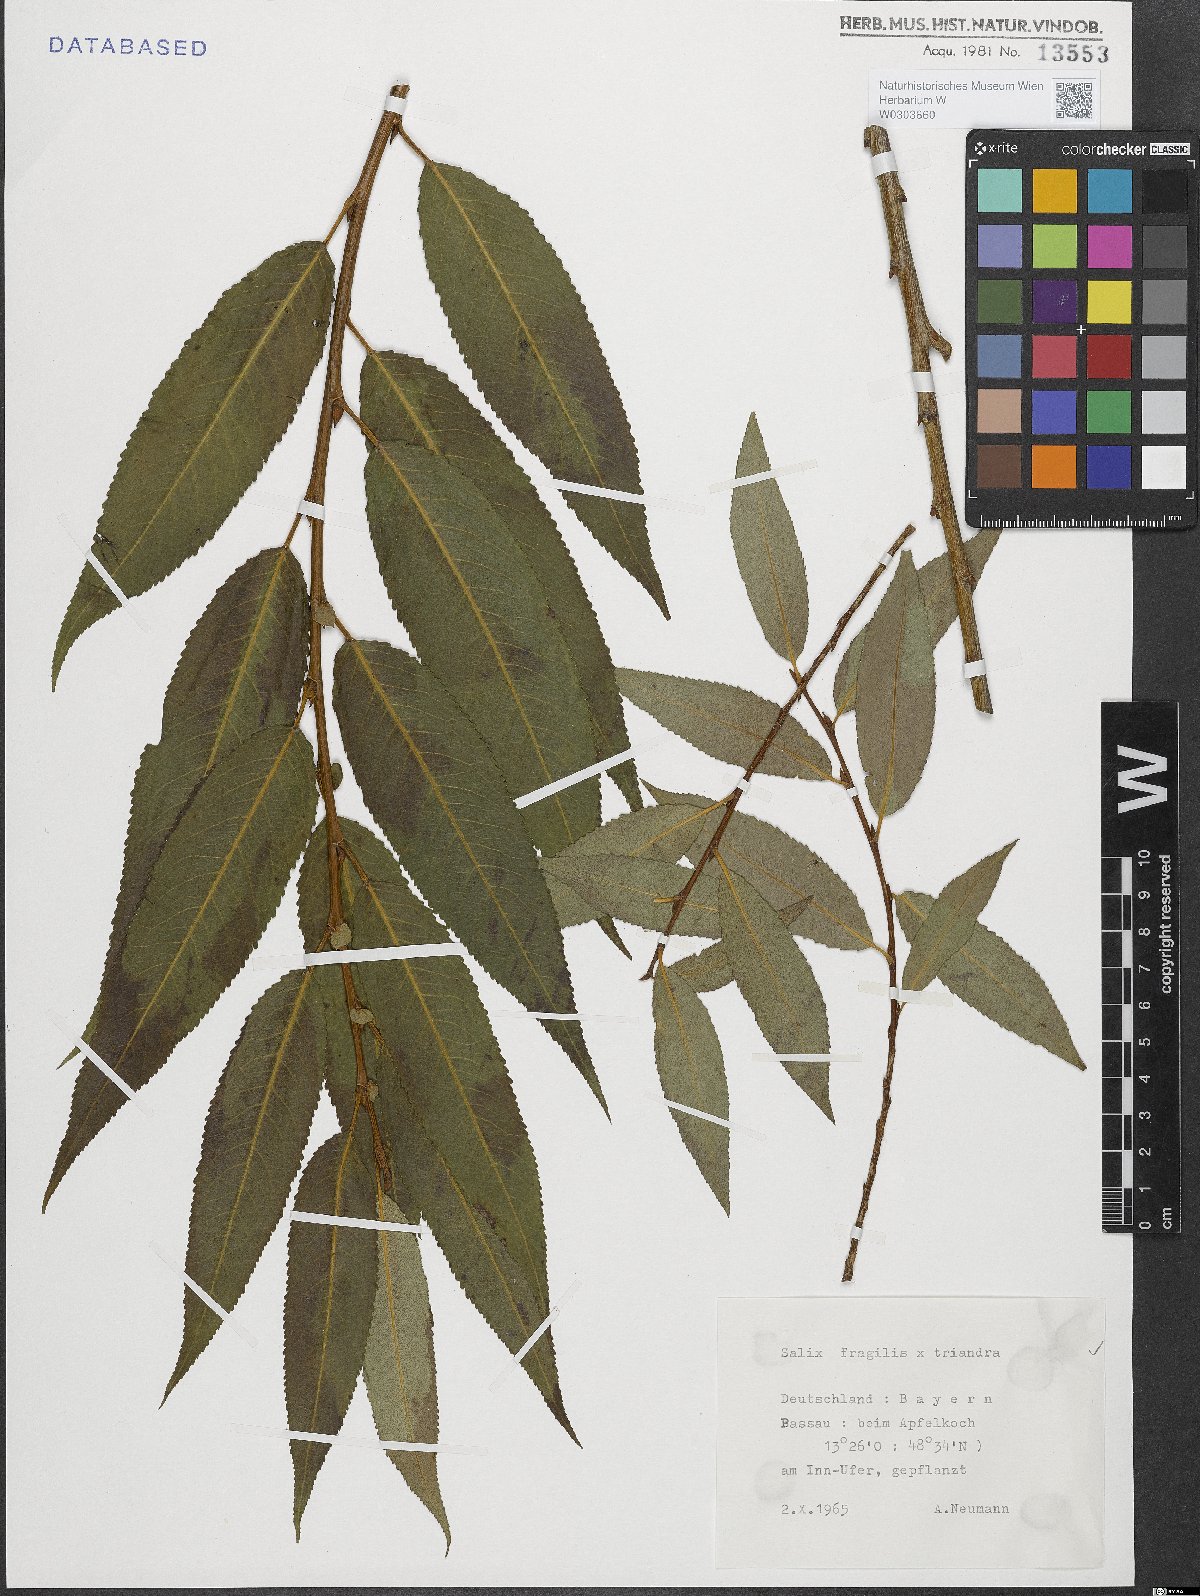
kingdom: Plantae
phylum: Tracheophyta
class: Magnoliopsida
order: Malpighiales
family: Salicaceae
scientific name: Salicaceae
